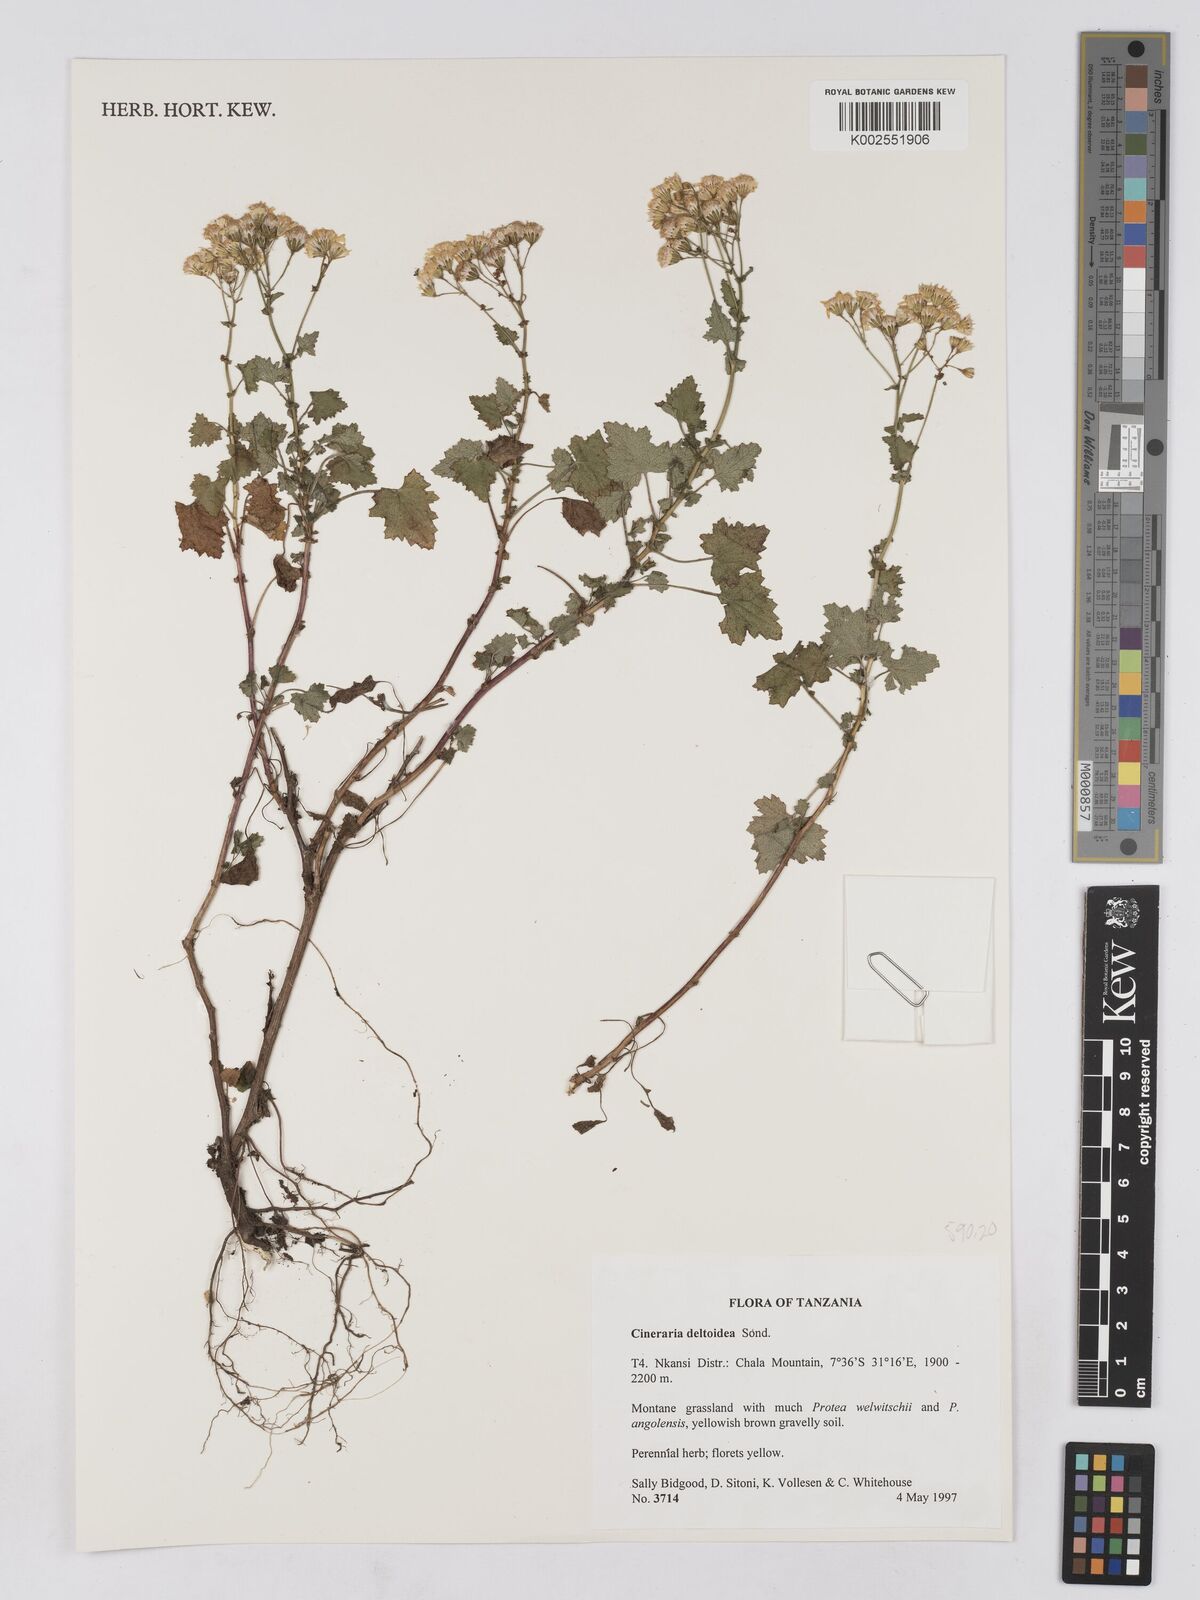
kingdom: Plantae
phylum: Tracheophyta
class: Magnoliopsida
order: Asterales
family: Asteraceae
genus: Cineraria
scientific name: Cineraria deltoidea
